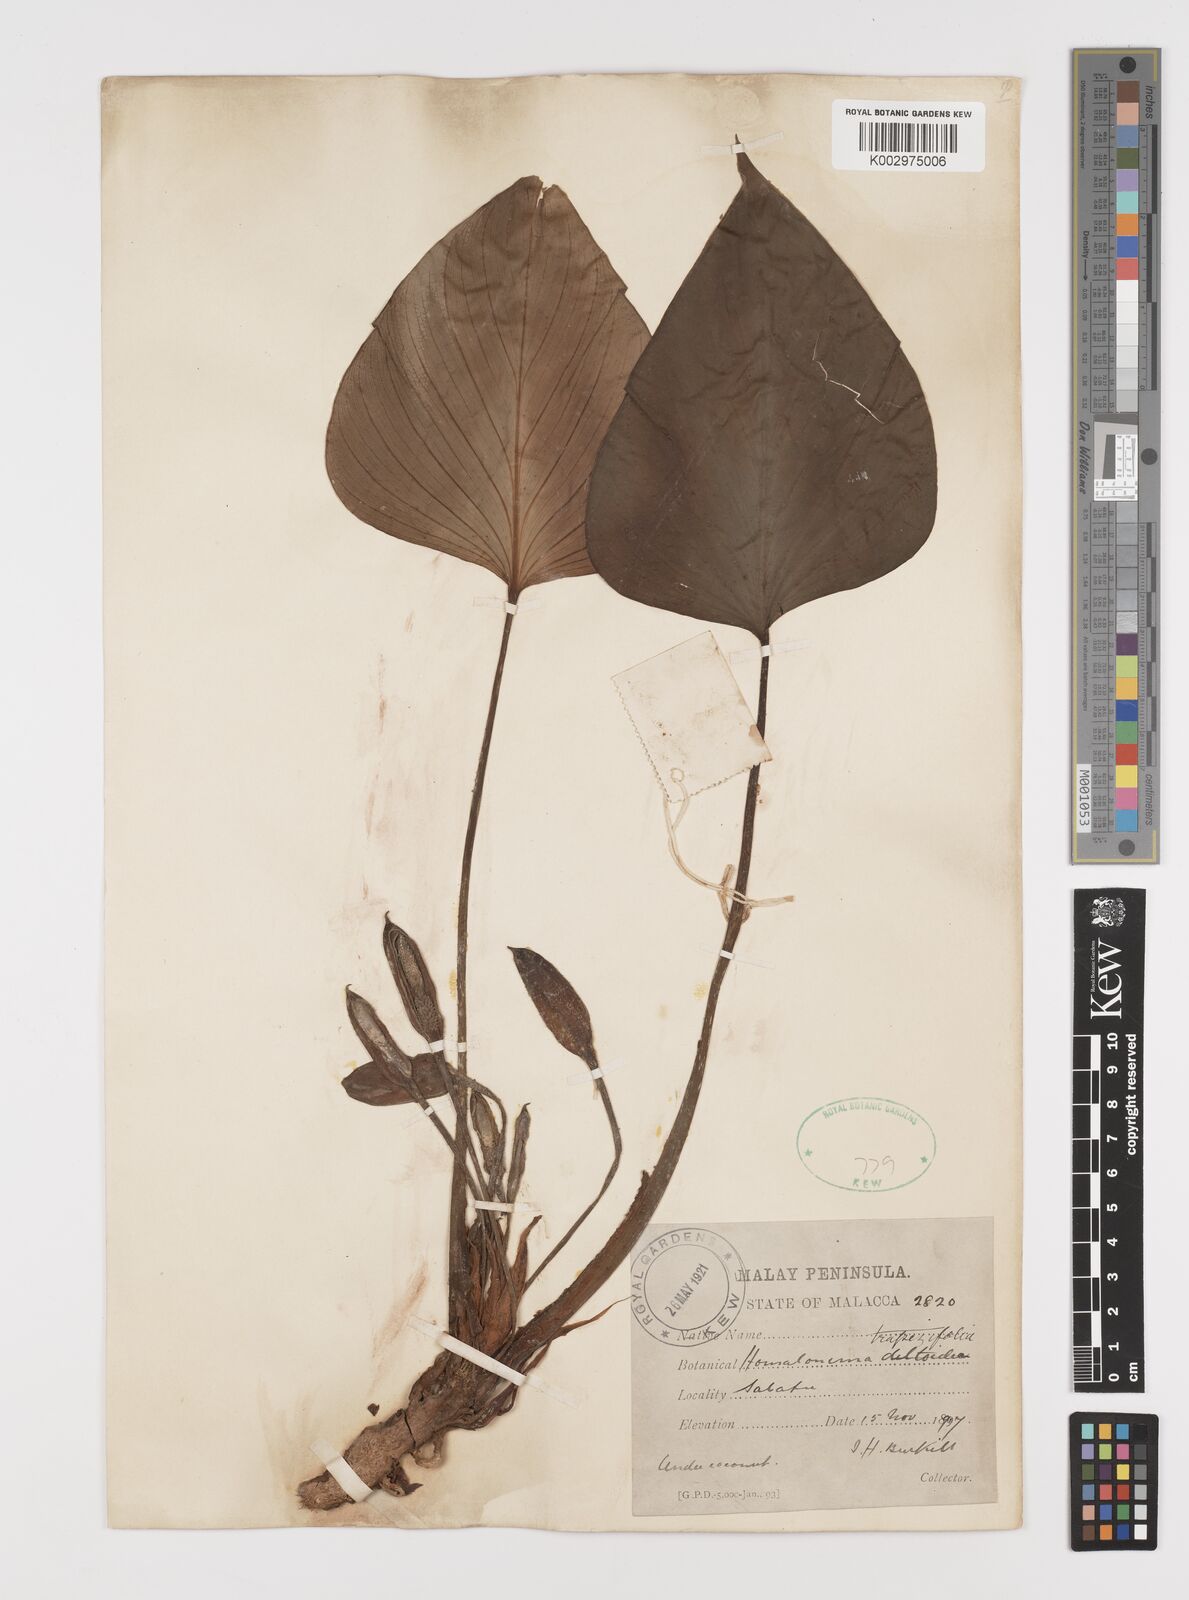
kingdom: Plantae
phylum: Tracheophyta
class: Liliopsida
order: Alismatales
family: Araceae
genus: Homalomena
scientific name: Homalomena griffithii
